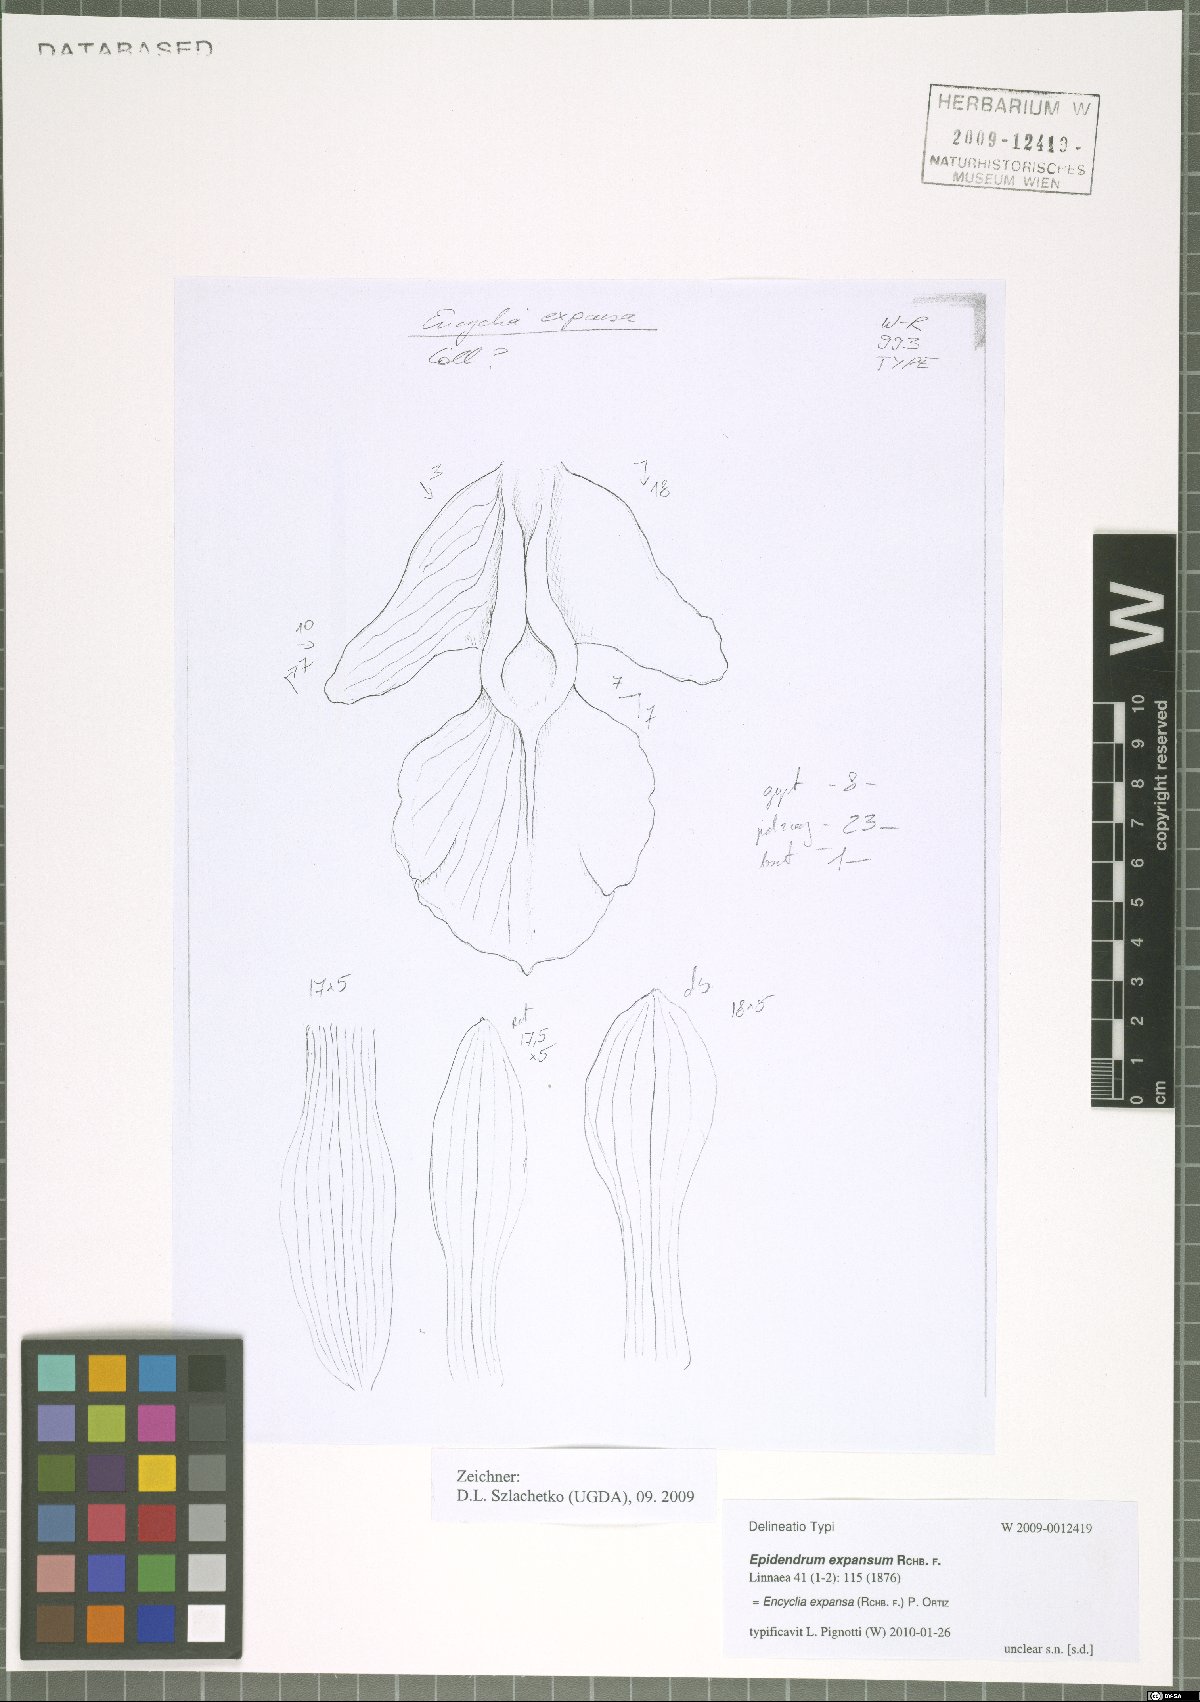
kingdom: Plantae
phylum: Tracheophyta
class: Liliopsida
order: Asparagales
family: Orchidaceae
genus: Encyclia
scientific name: Encyclia replicata
